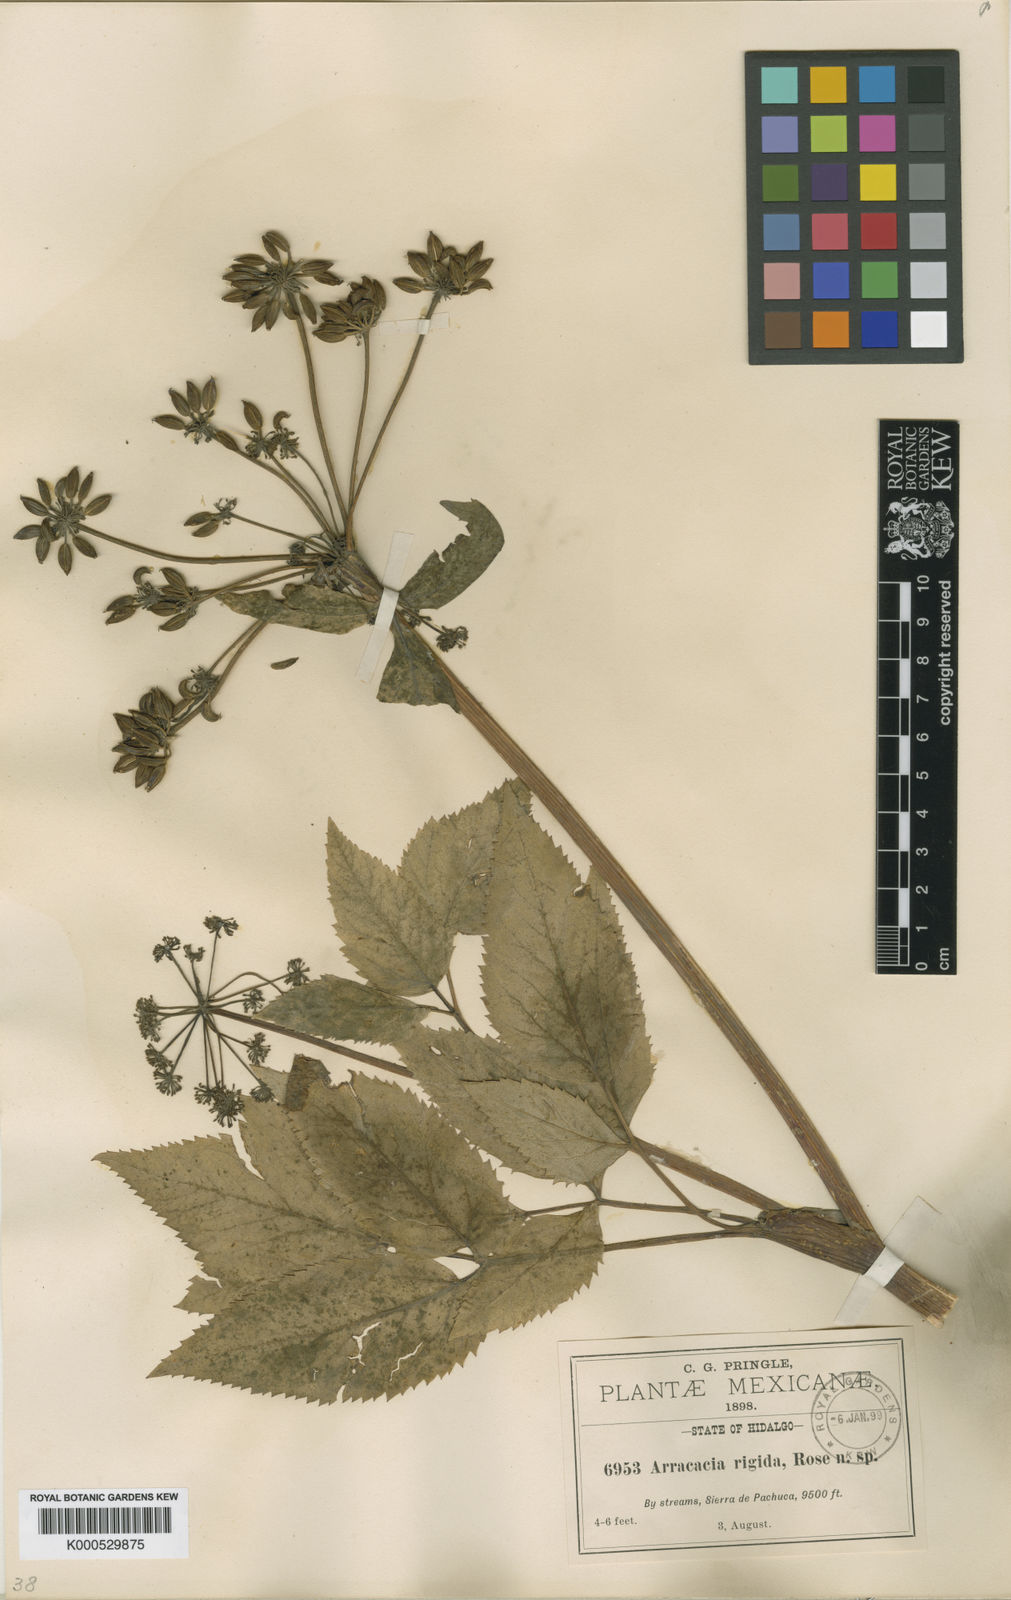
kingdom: Plantae
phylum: Tracheophyta
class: Magnoliopsida
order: Apiales
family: Apiaceae
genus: Arracacia
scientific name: Arracacia rigida
